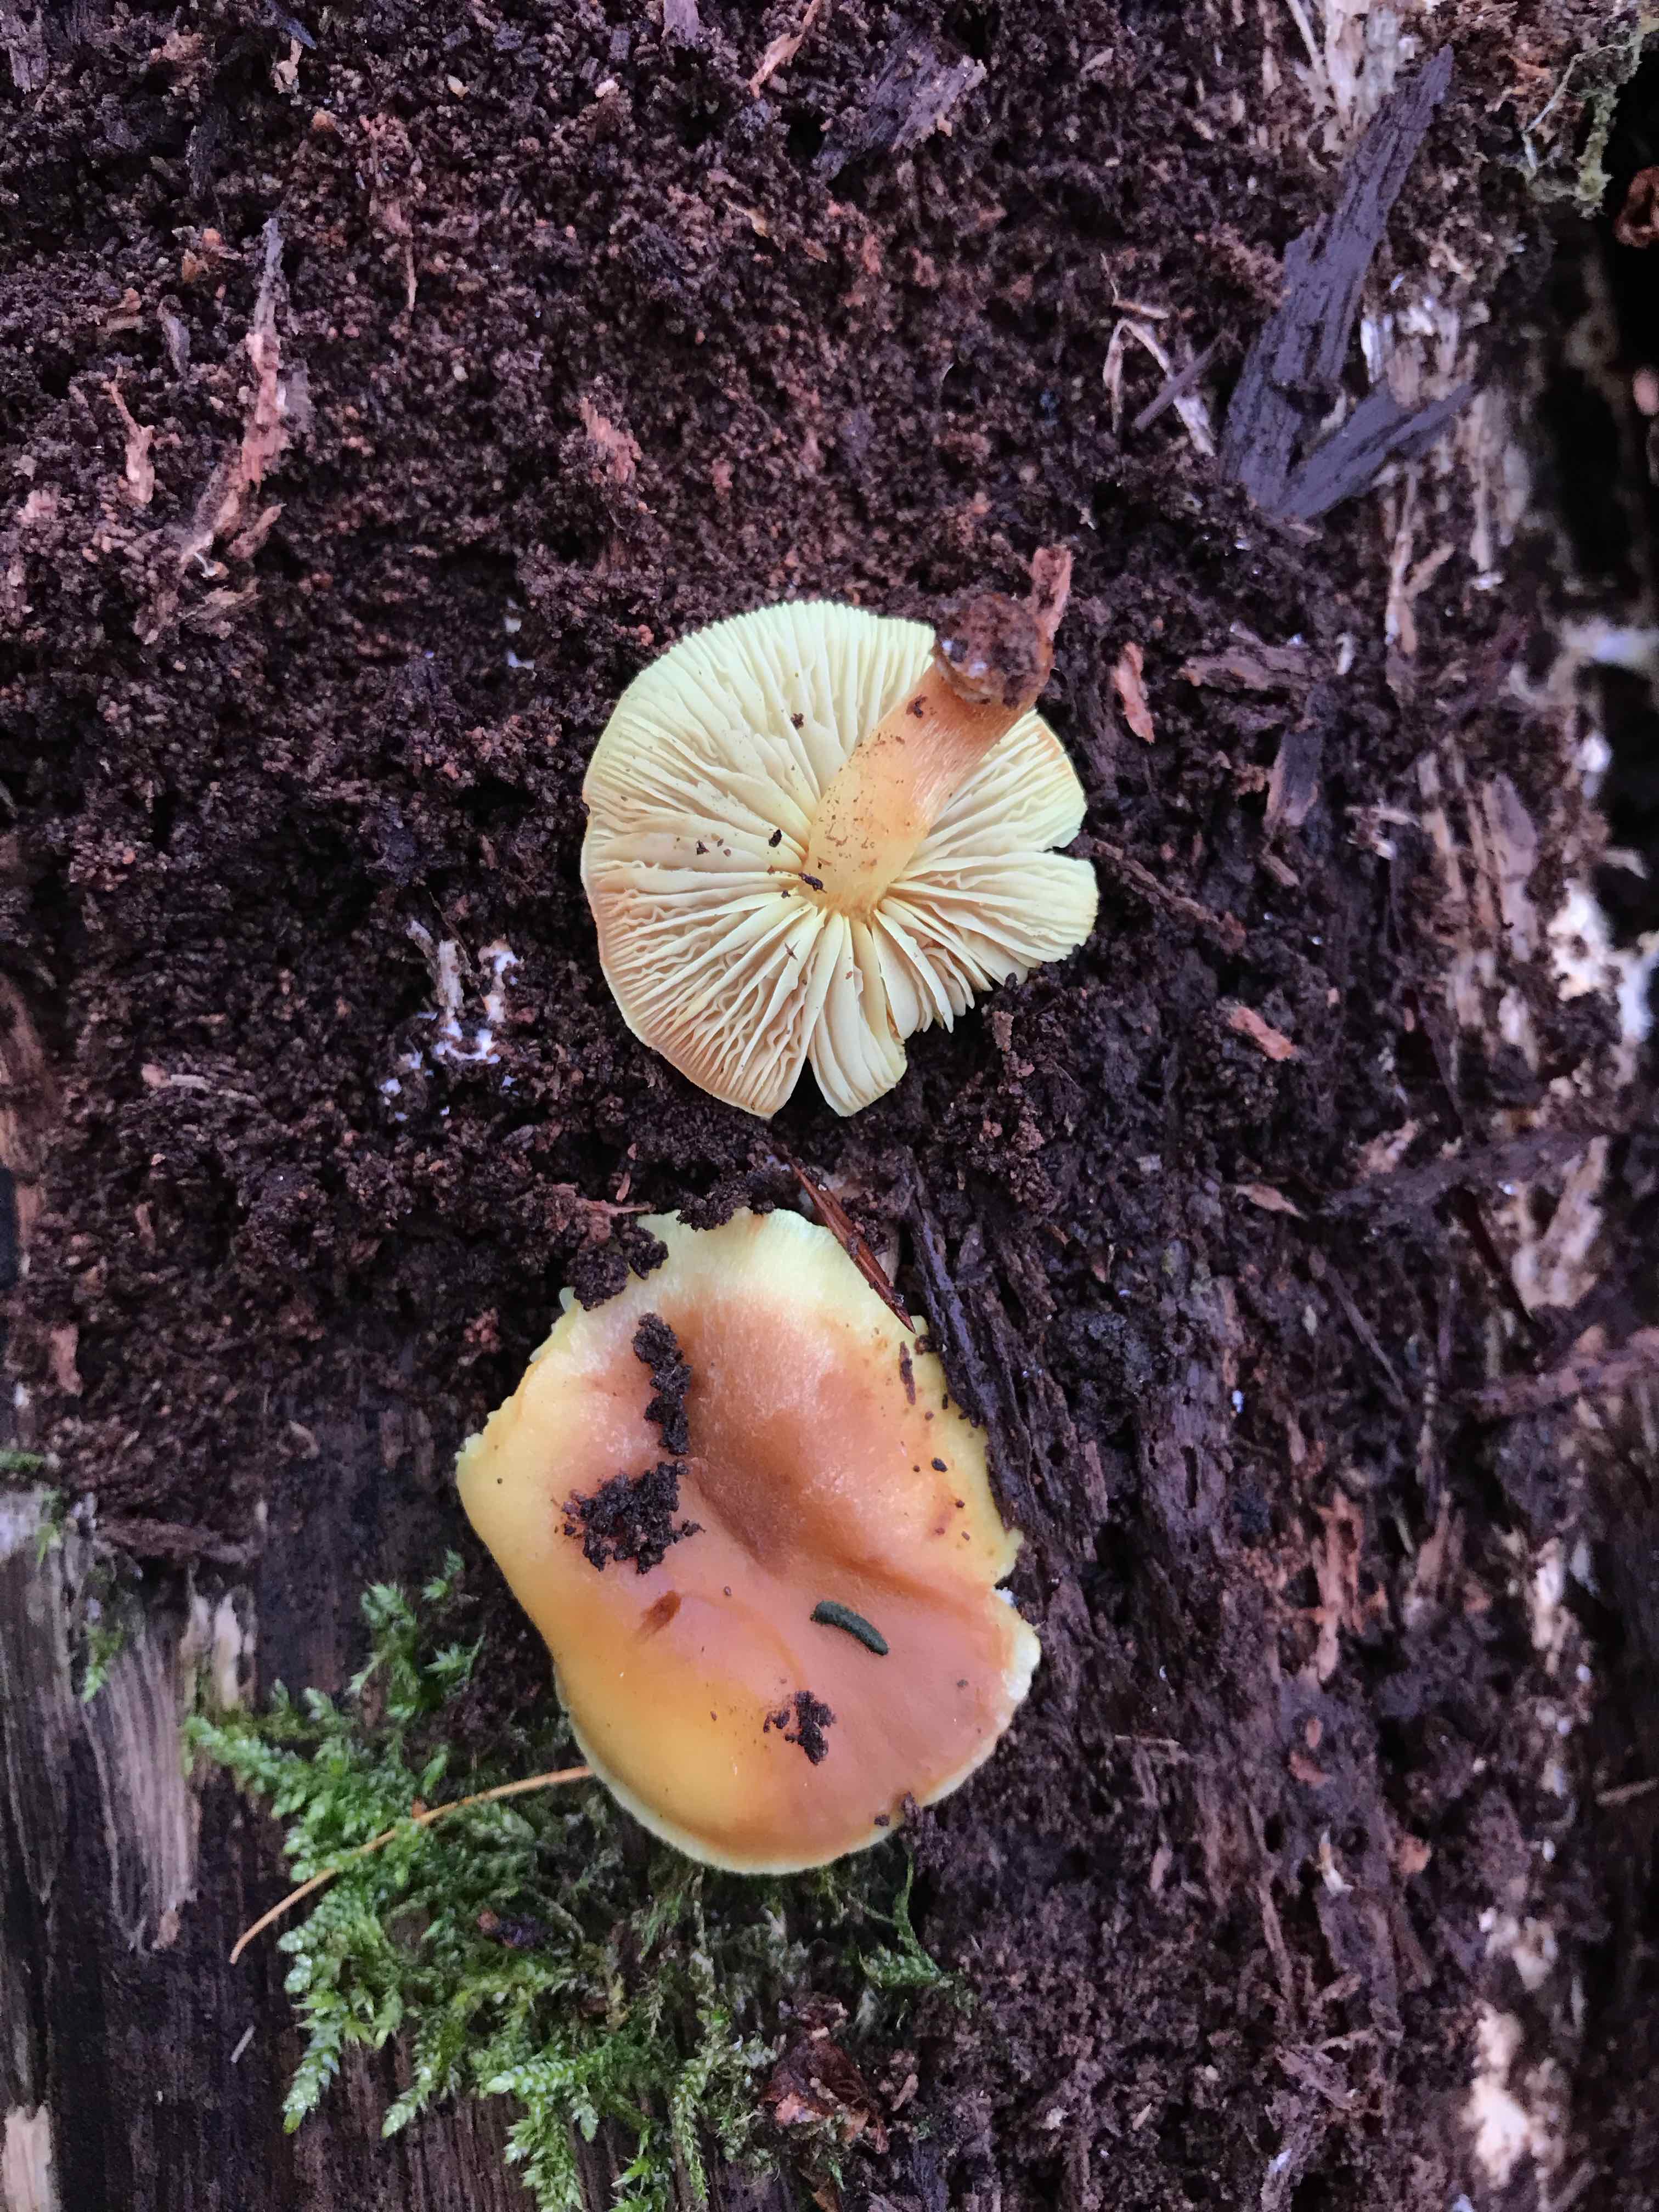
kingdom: Fungi
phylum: Basidiomycota
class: Agaricomycetes
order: Agaricales
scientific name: Agaricales
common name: champignonordenen
